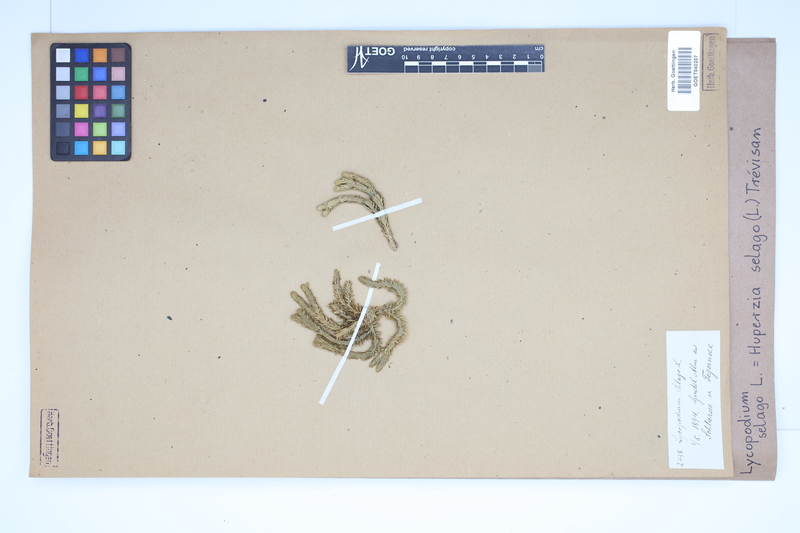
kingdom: Plantae
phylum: Tracheophyta
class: Lycopodiopsida
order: Lycopodiales
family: Lycopodiaceae
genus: Huperzia
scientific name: Huperzia selago
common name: Northern firmoss
